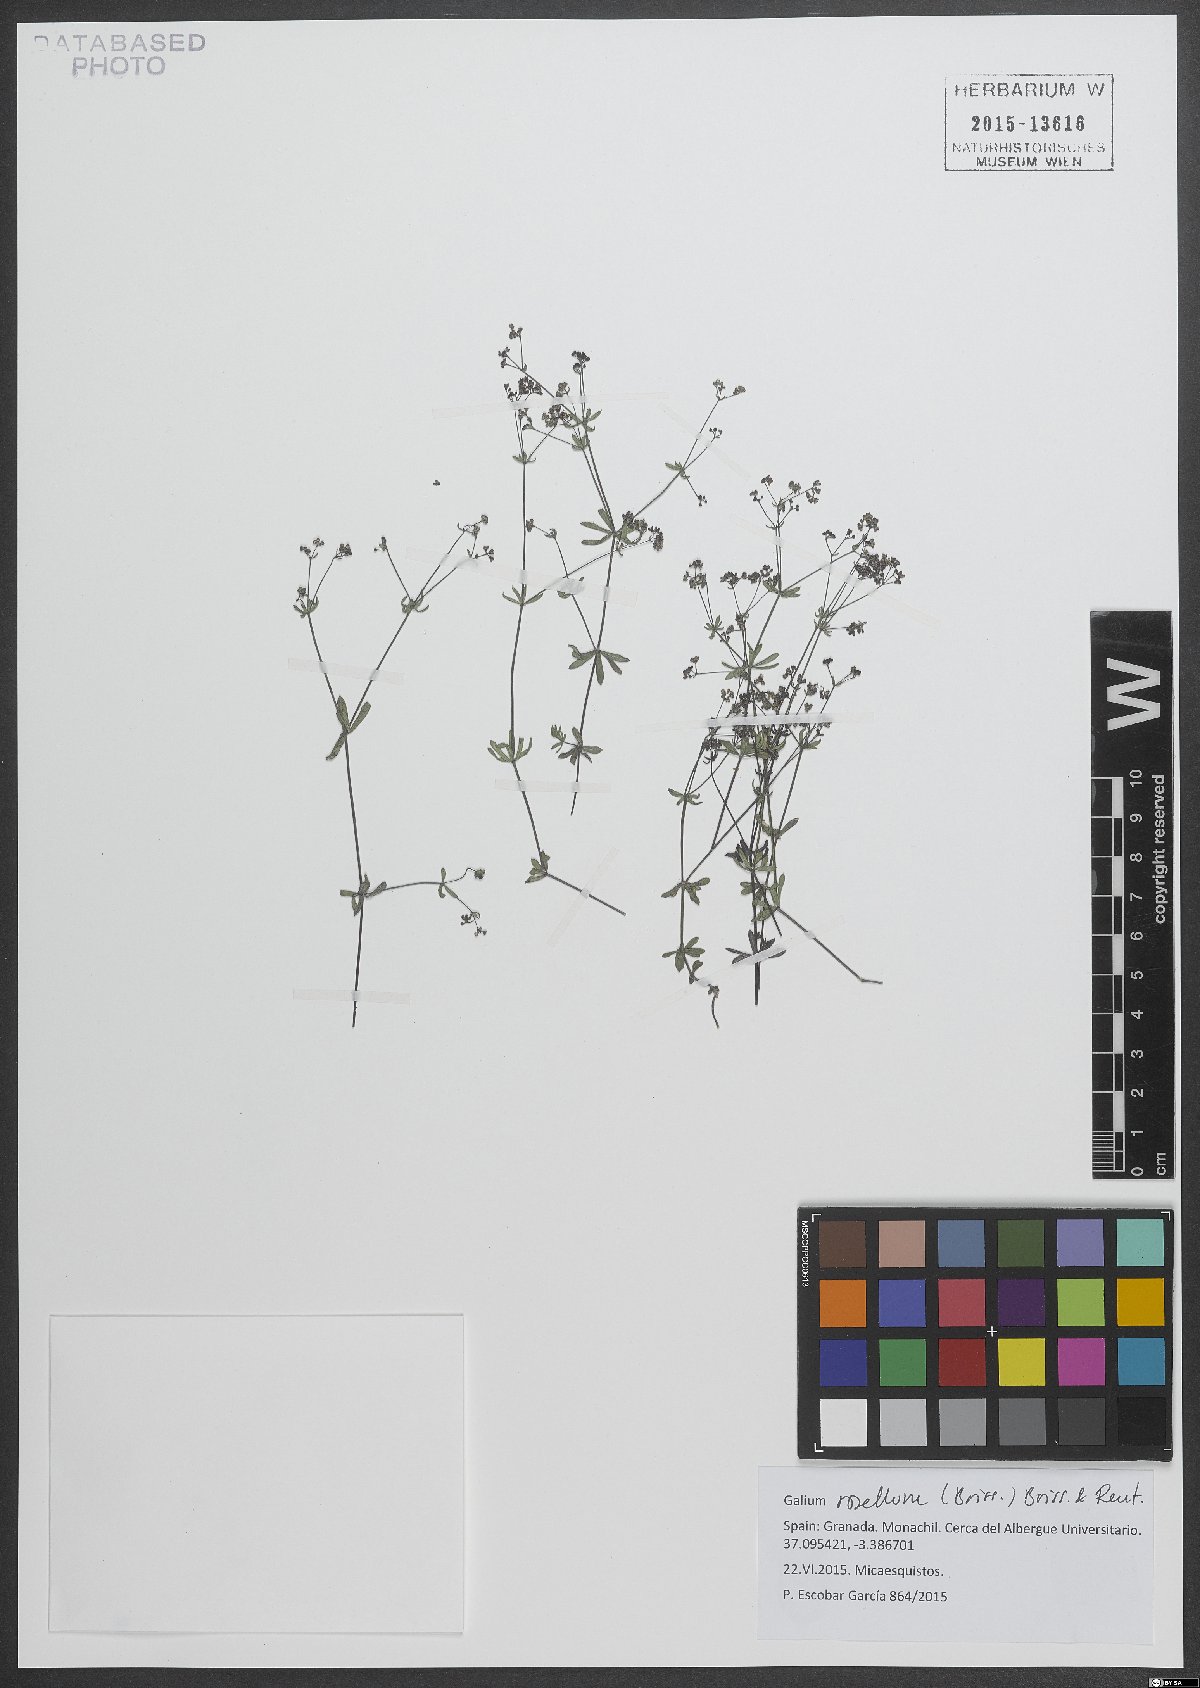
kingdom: Plantae
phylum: Tracheophyta
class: Magnoliopsida
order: Gentianales
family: Rubiaceae
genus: Galium
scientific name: Galium rosellum
